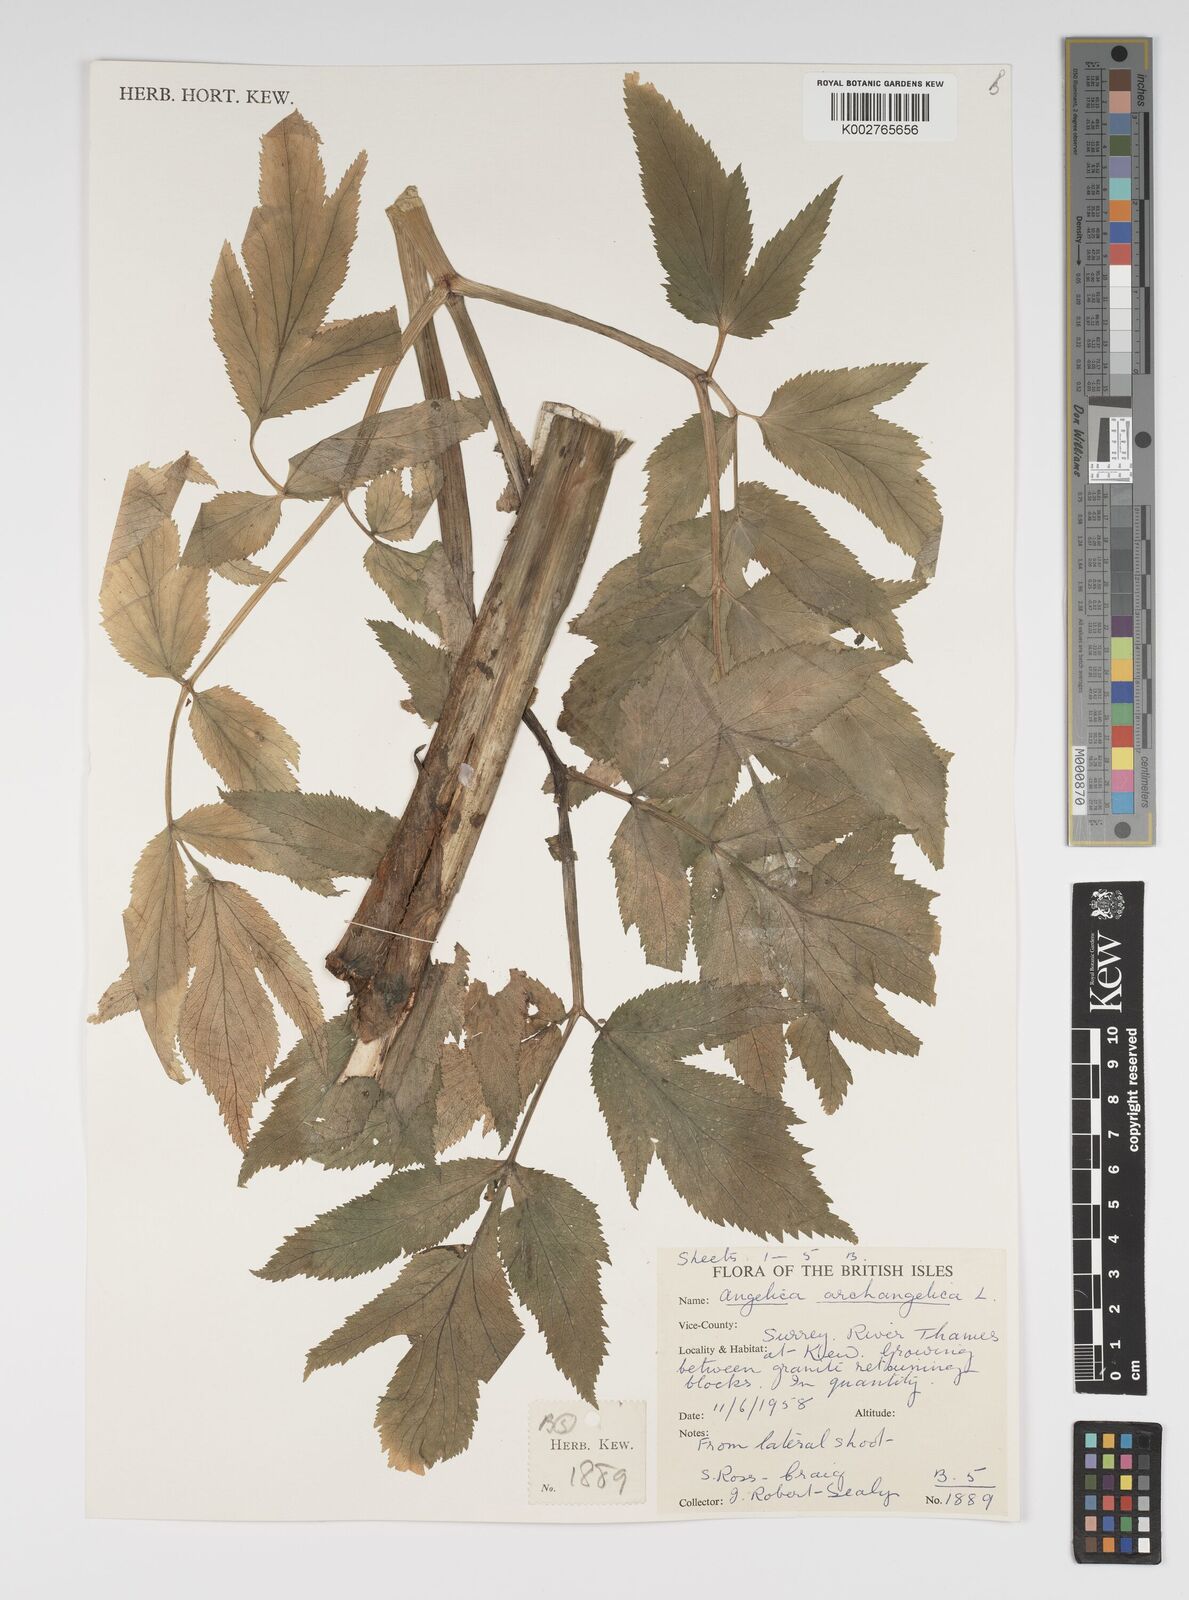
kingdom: Plantae
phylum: Tracheophyta
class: Magnoliopsida
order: Apiales
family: Apiaceae
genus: Angelica
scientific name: Angelica archangelica
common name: Garden angelica
